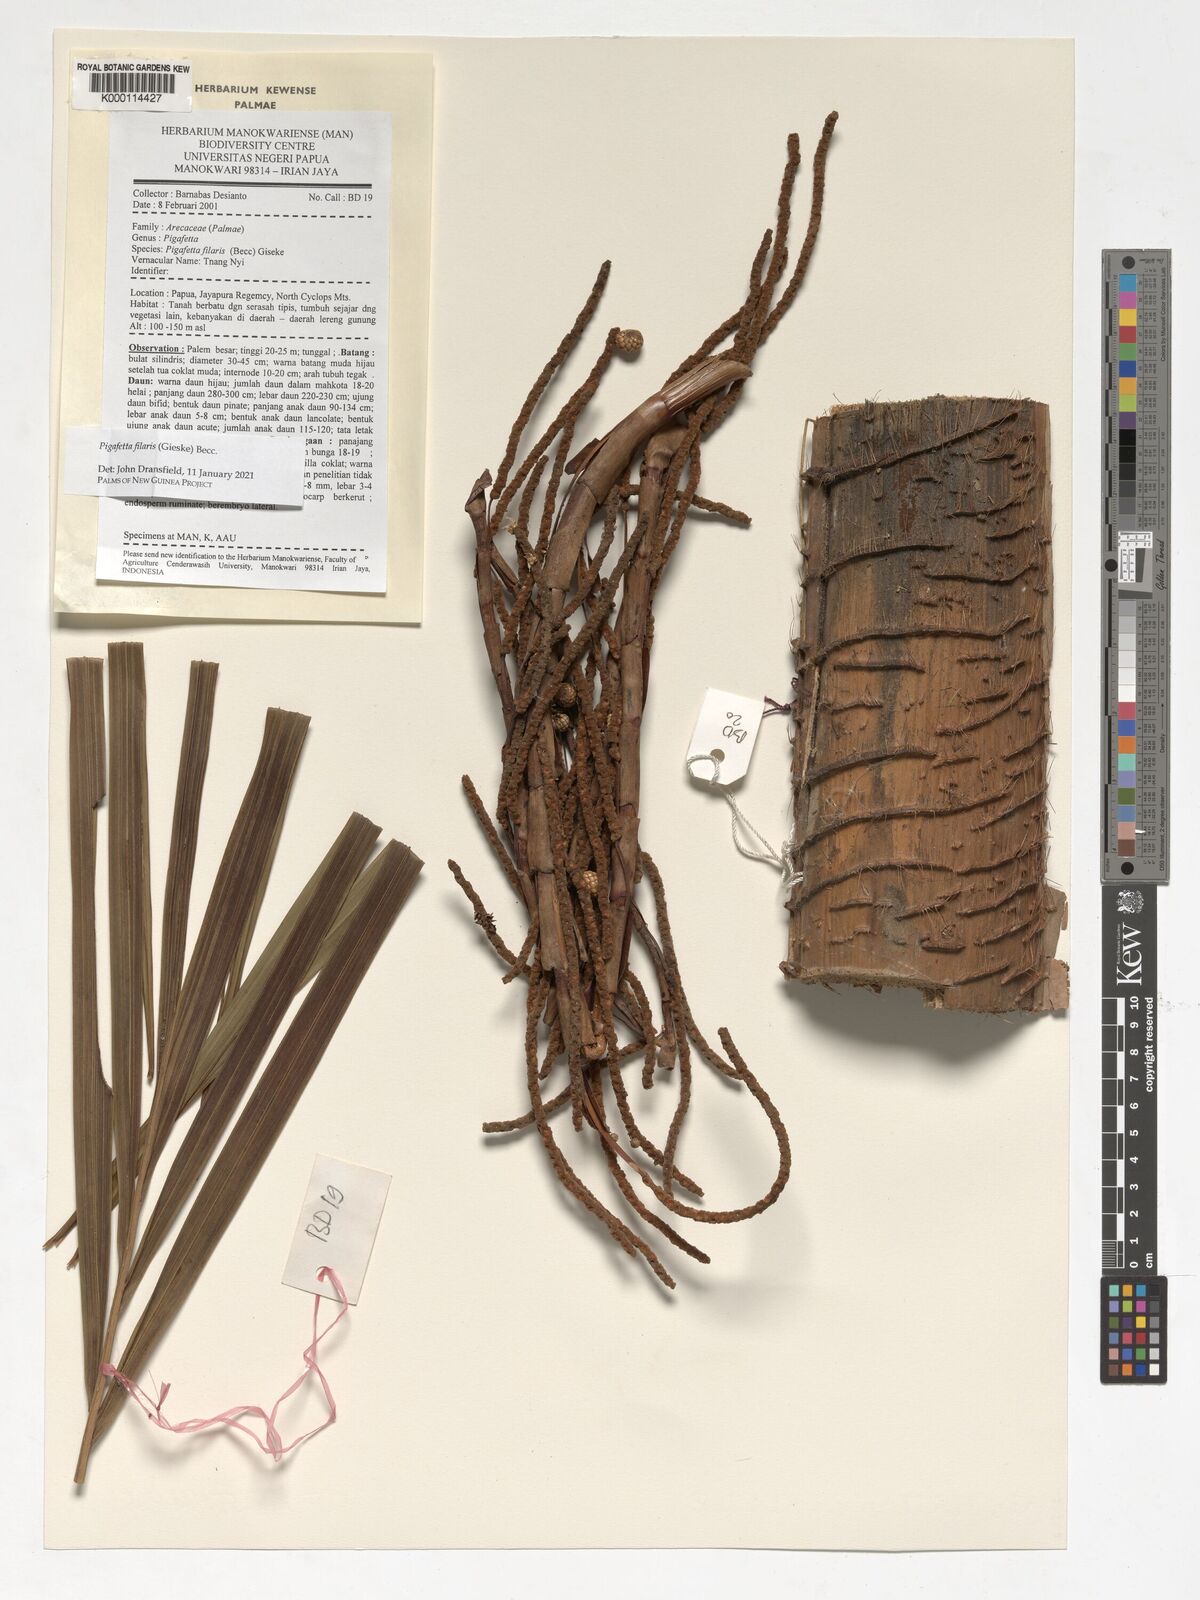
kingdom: Plantae
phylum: Tracheophyta
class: Liliopsida
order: Arecales
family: Arecaceae
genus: Pigafetta
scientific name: Pigafetta filaris
